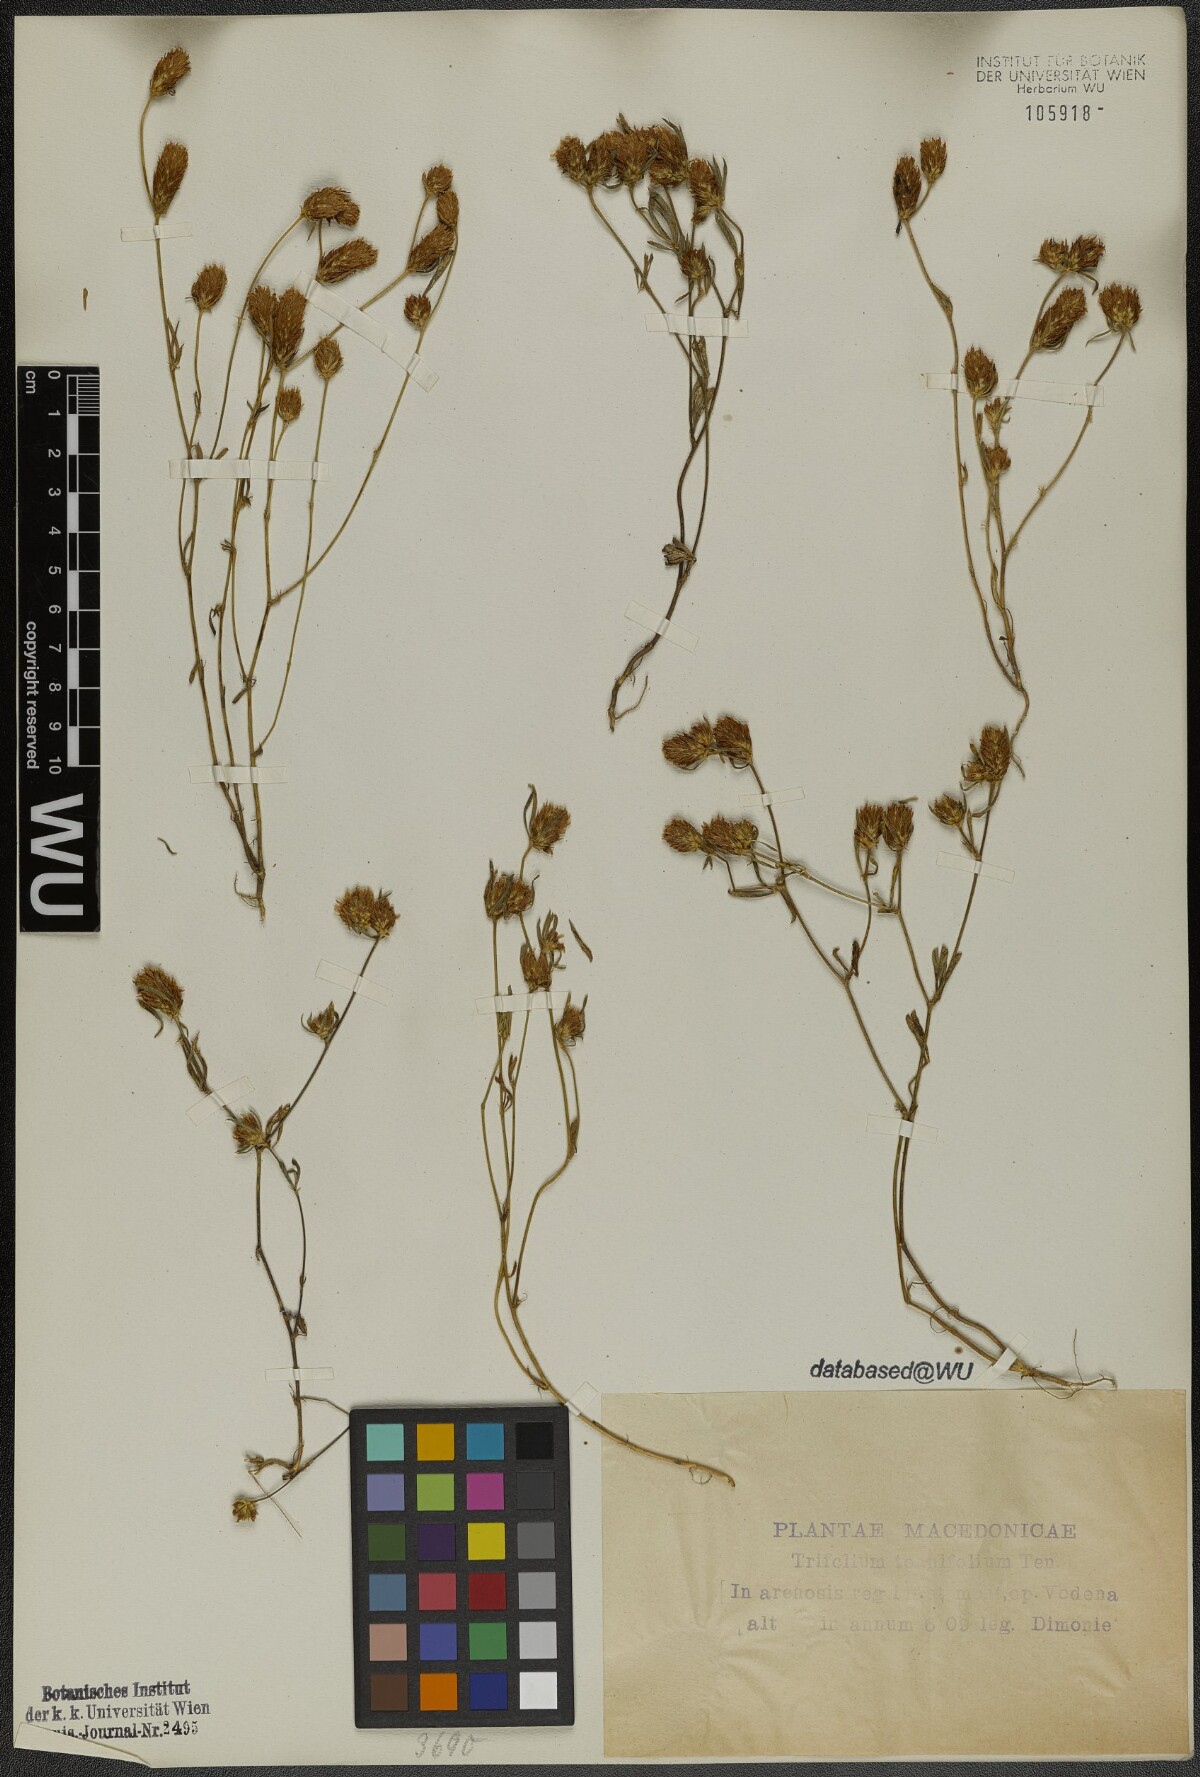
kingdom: Plantae
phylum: Tracheophyta
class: Magnoliopsida
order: Fabales
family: Fabaceae
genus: Trifolium
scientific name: Trifolium tenuifolium
